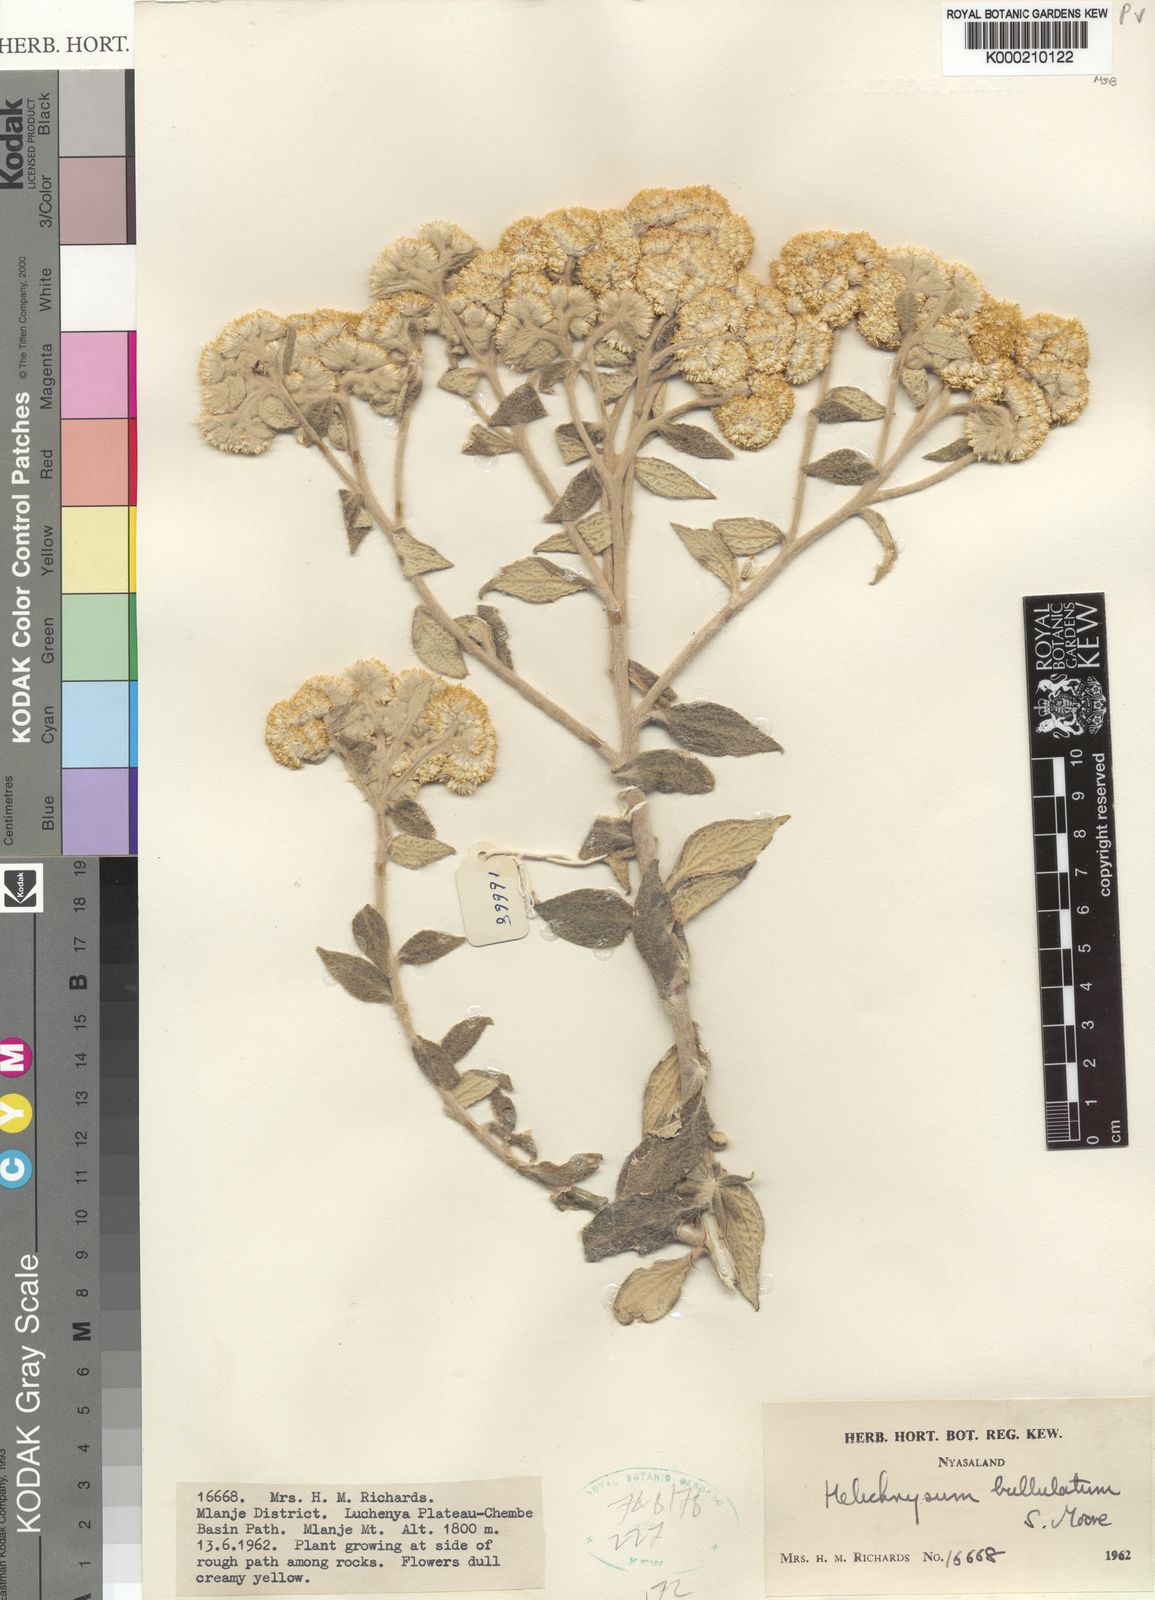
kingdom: Plantae
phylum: Tracheophyta
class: Magnoliopsida
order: Asterales
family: Asteraceae
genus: Helichrysum
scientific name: Helichrysum bullulatum
